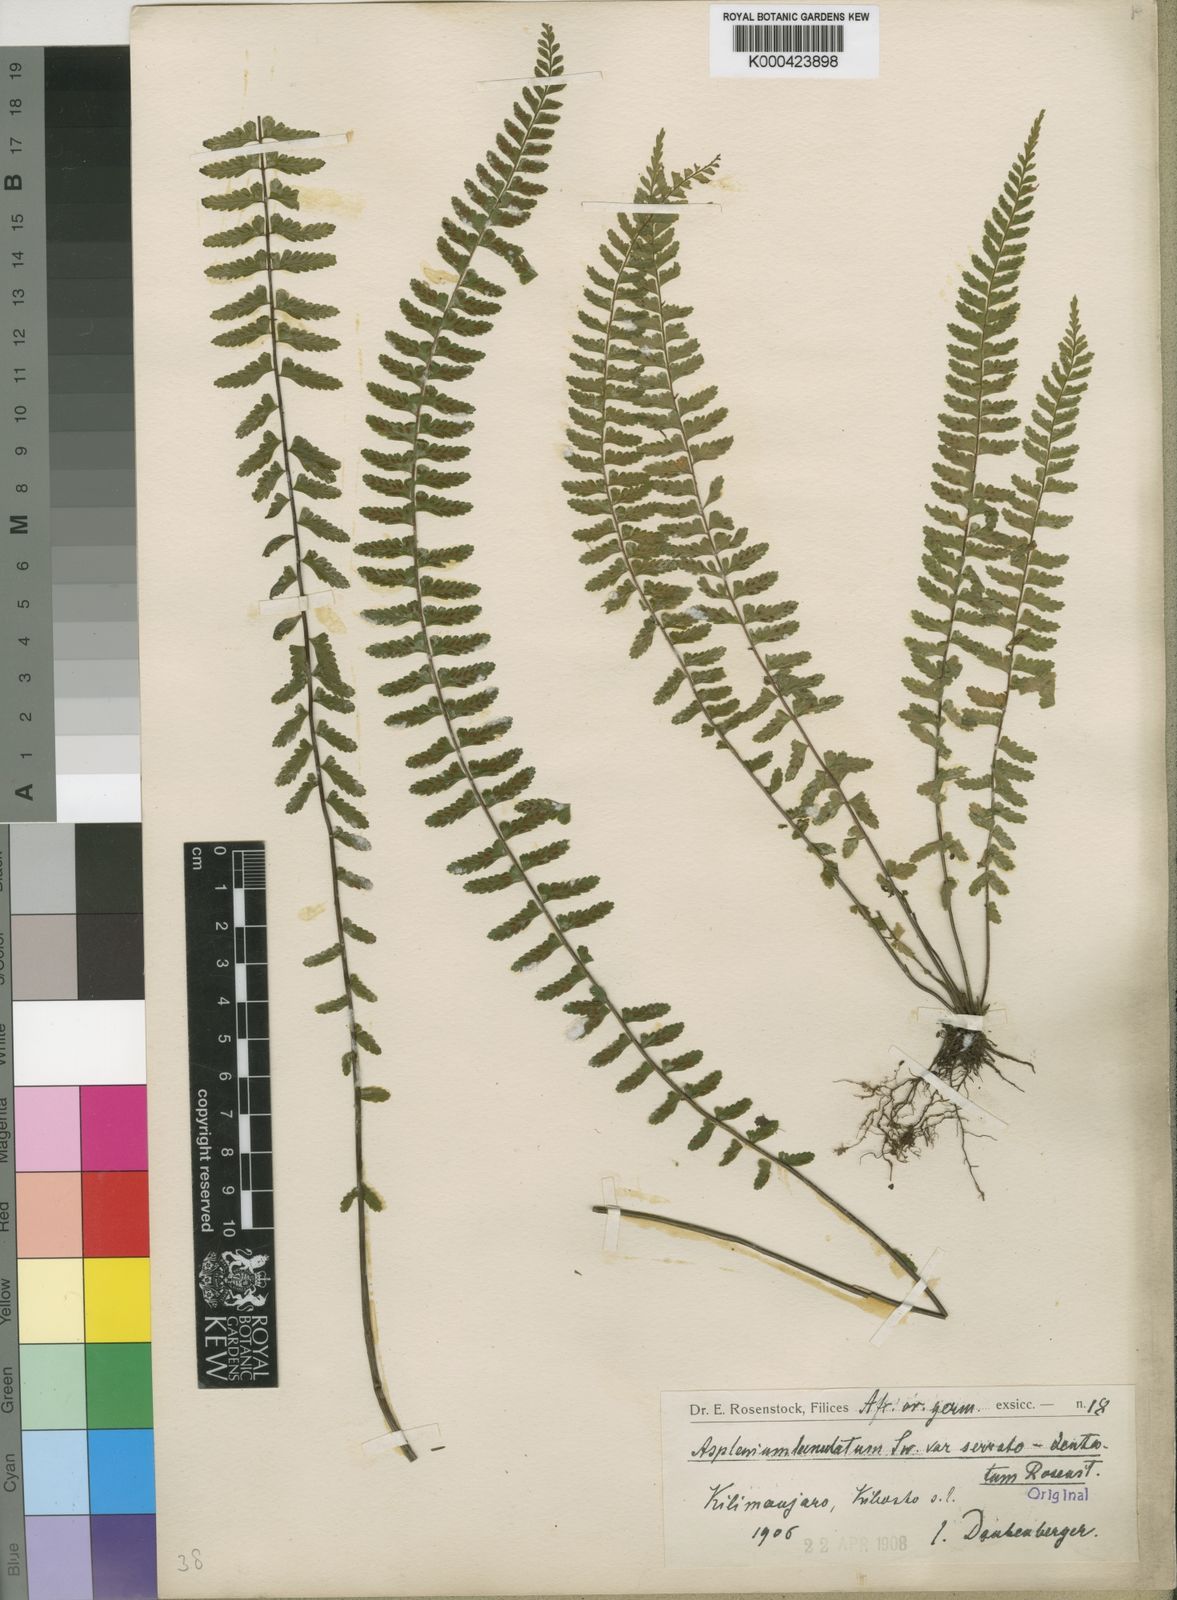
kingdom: Plantae
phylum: Tracheophyta
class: Polypodiopsida
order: Polypodiales
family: Aspleniaceae
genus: Asplenium
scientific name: Asplenium erectum
